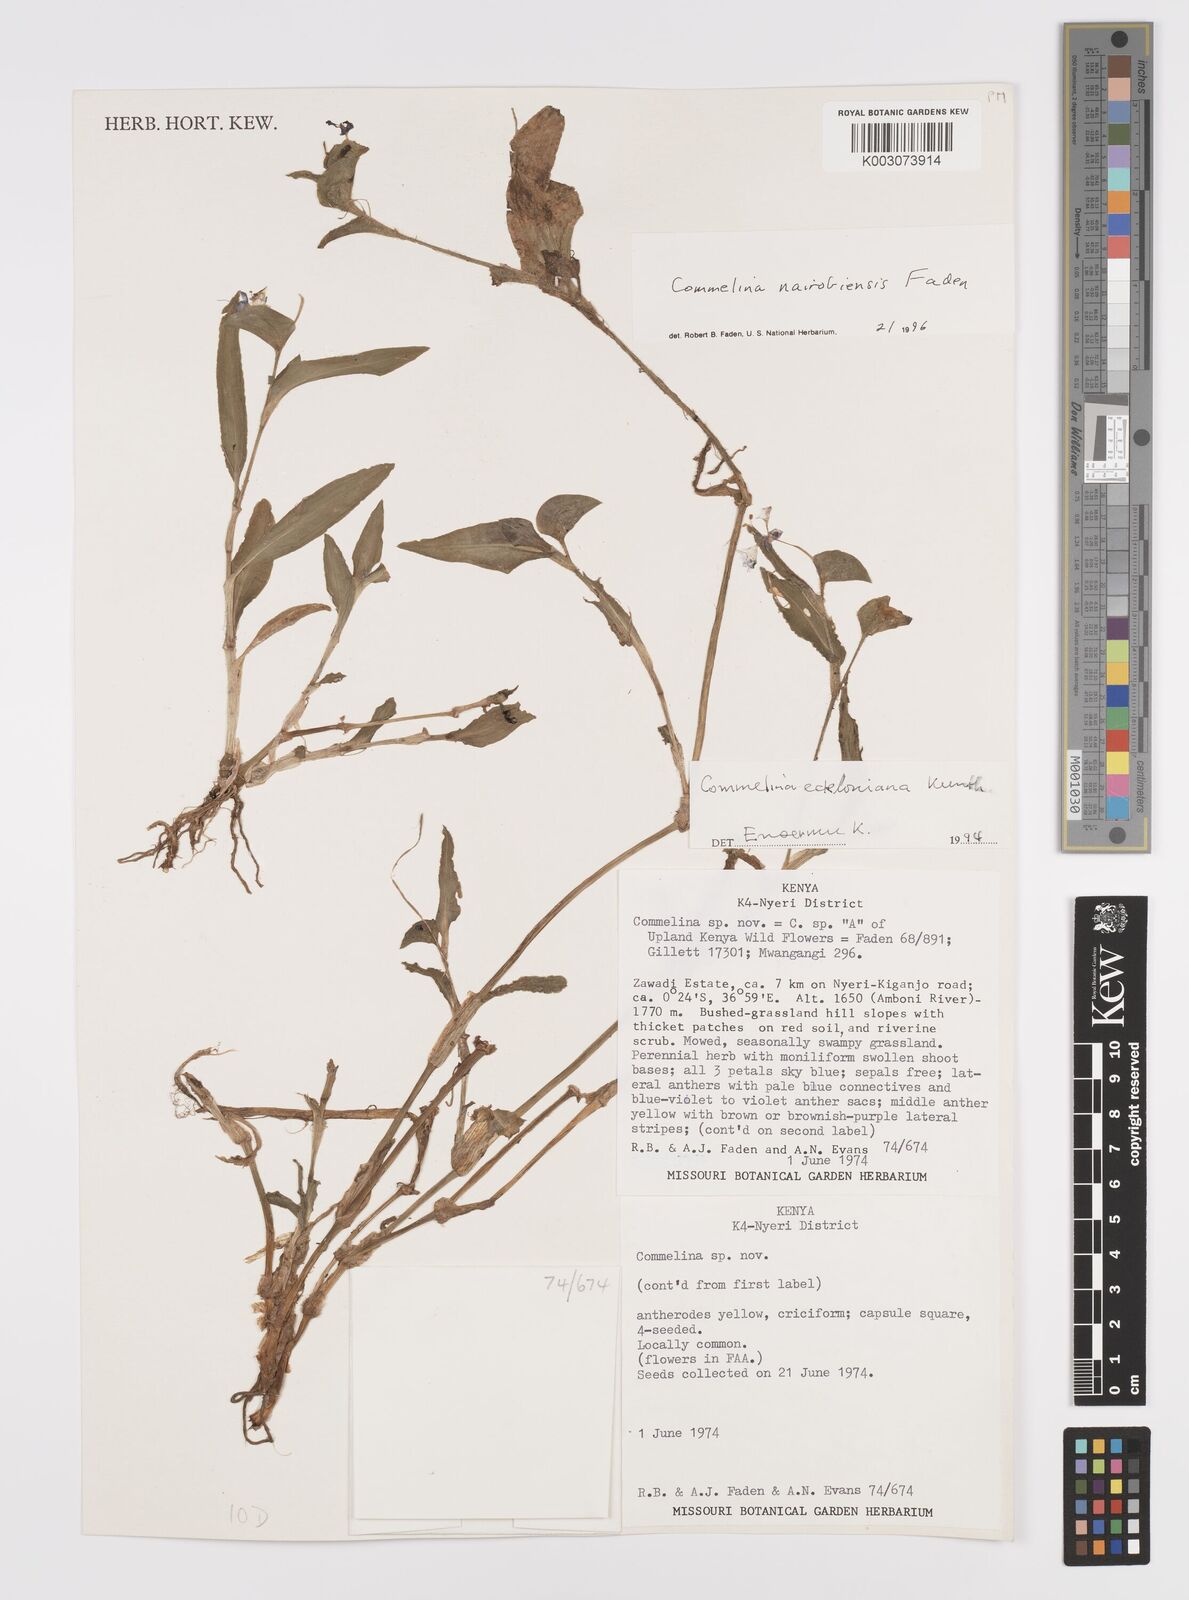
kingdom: Plantae
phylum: Tracheophyta
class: Liliopsida
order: Commelinales
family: Commelinaceae
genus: Commelina
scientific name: Commelina eckloniana
